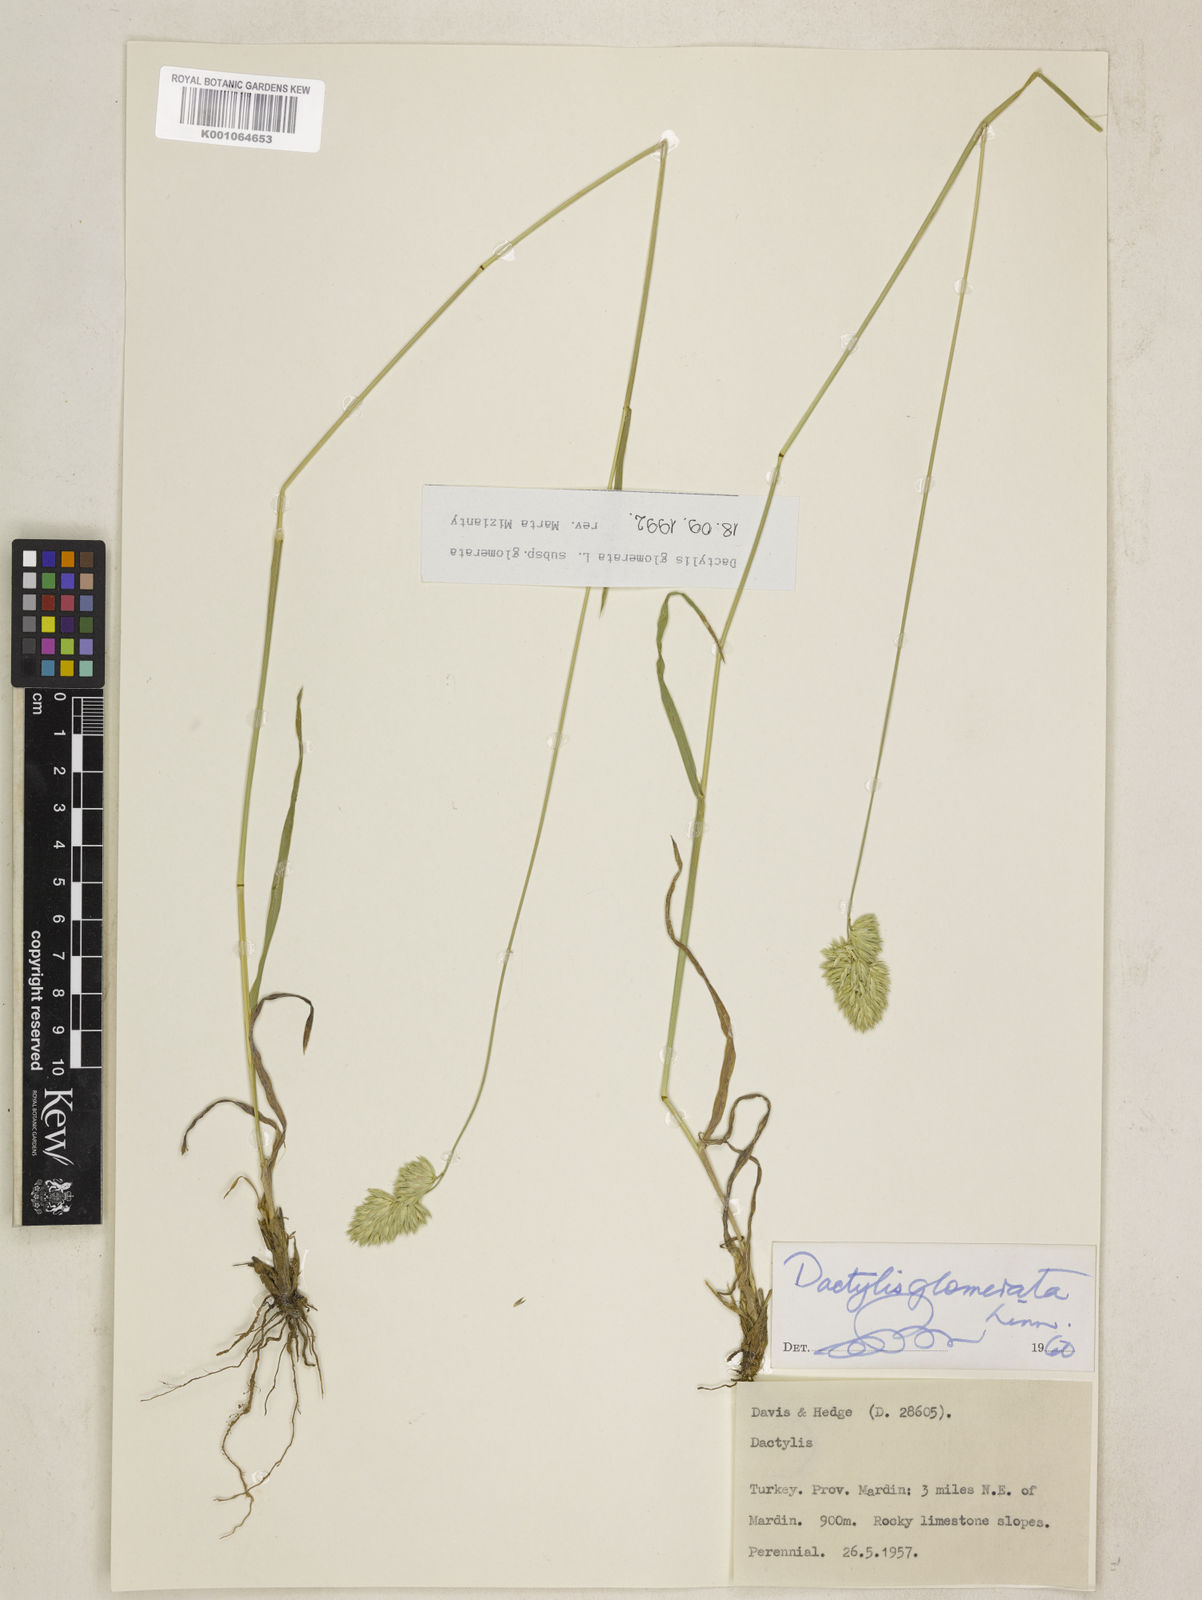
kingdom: Plantae
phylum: Tracheophyta
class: Liliopsida
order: Poales
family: Poaceae
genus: Dactylis
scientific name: Dactylis glomerata
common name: Orchardgrass
